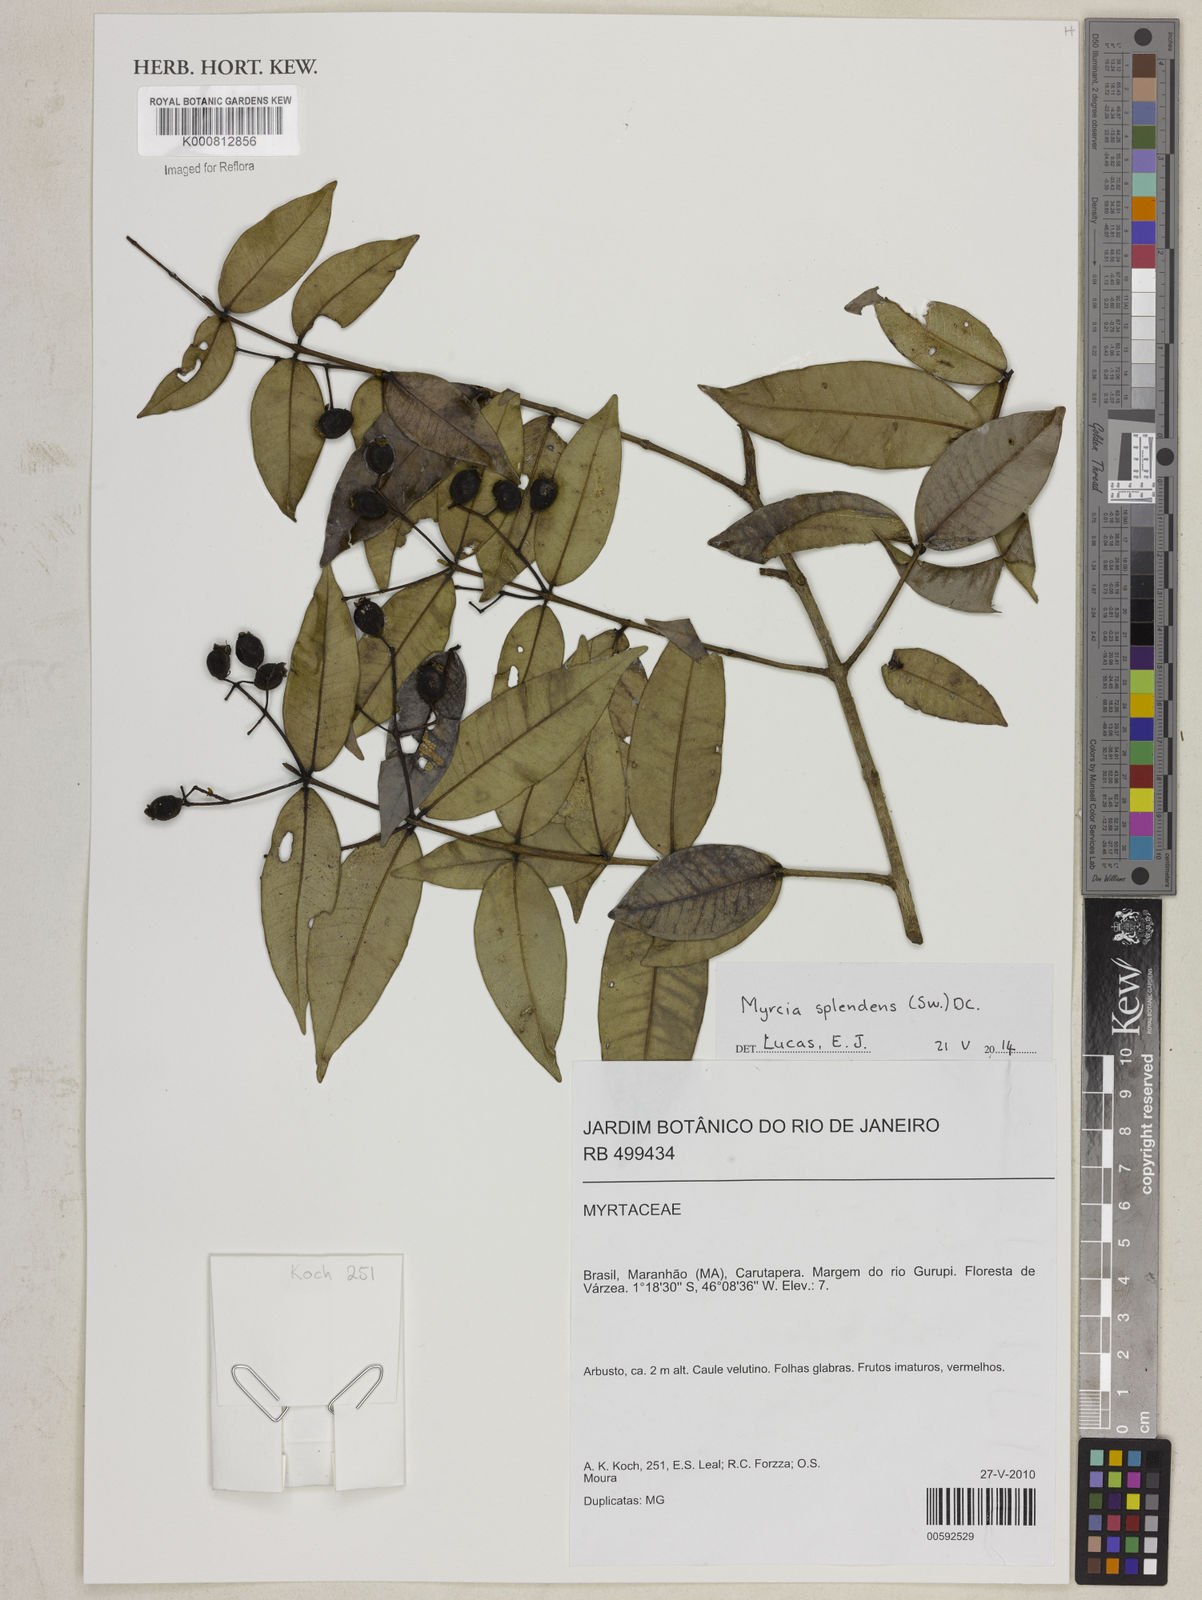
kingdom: Plantae
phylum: Tracheophyta
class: Magnoliopsida
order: Myrtales
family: Myrtaceae
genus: Myrcia
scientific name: Myrcia splendens
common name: Surinam cherry
